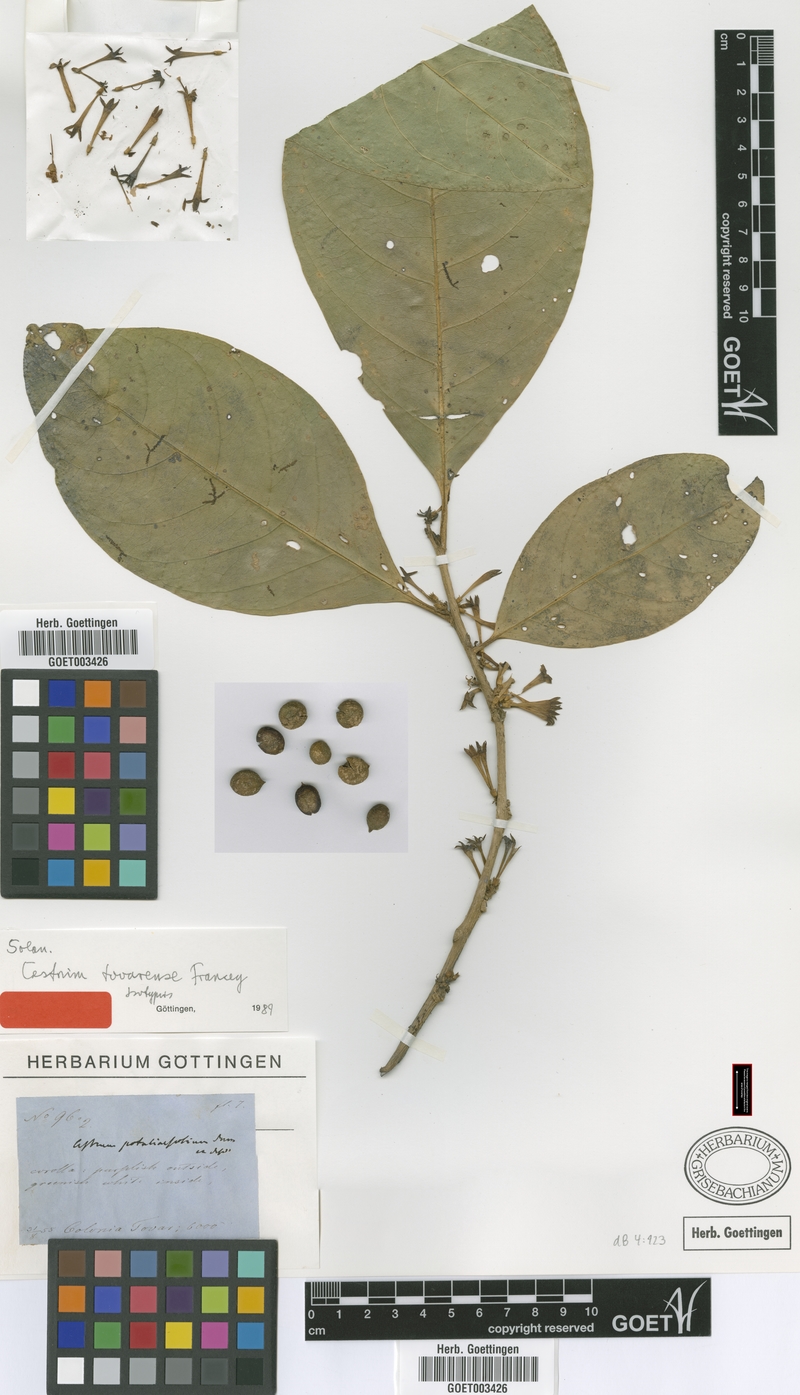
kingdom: Plantae
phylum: Tracheophyta
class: Magnoliopsida
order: Solanales
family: Solanaceae
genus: Cestrum
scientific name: Cestrum potaliifolium
